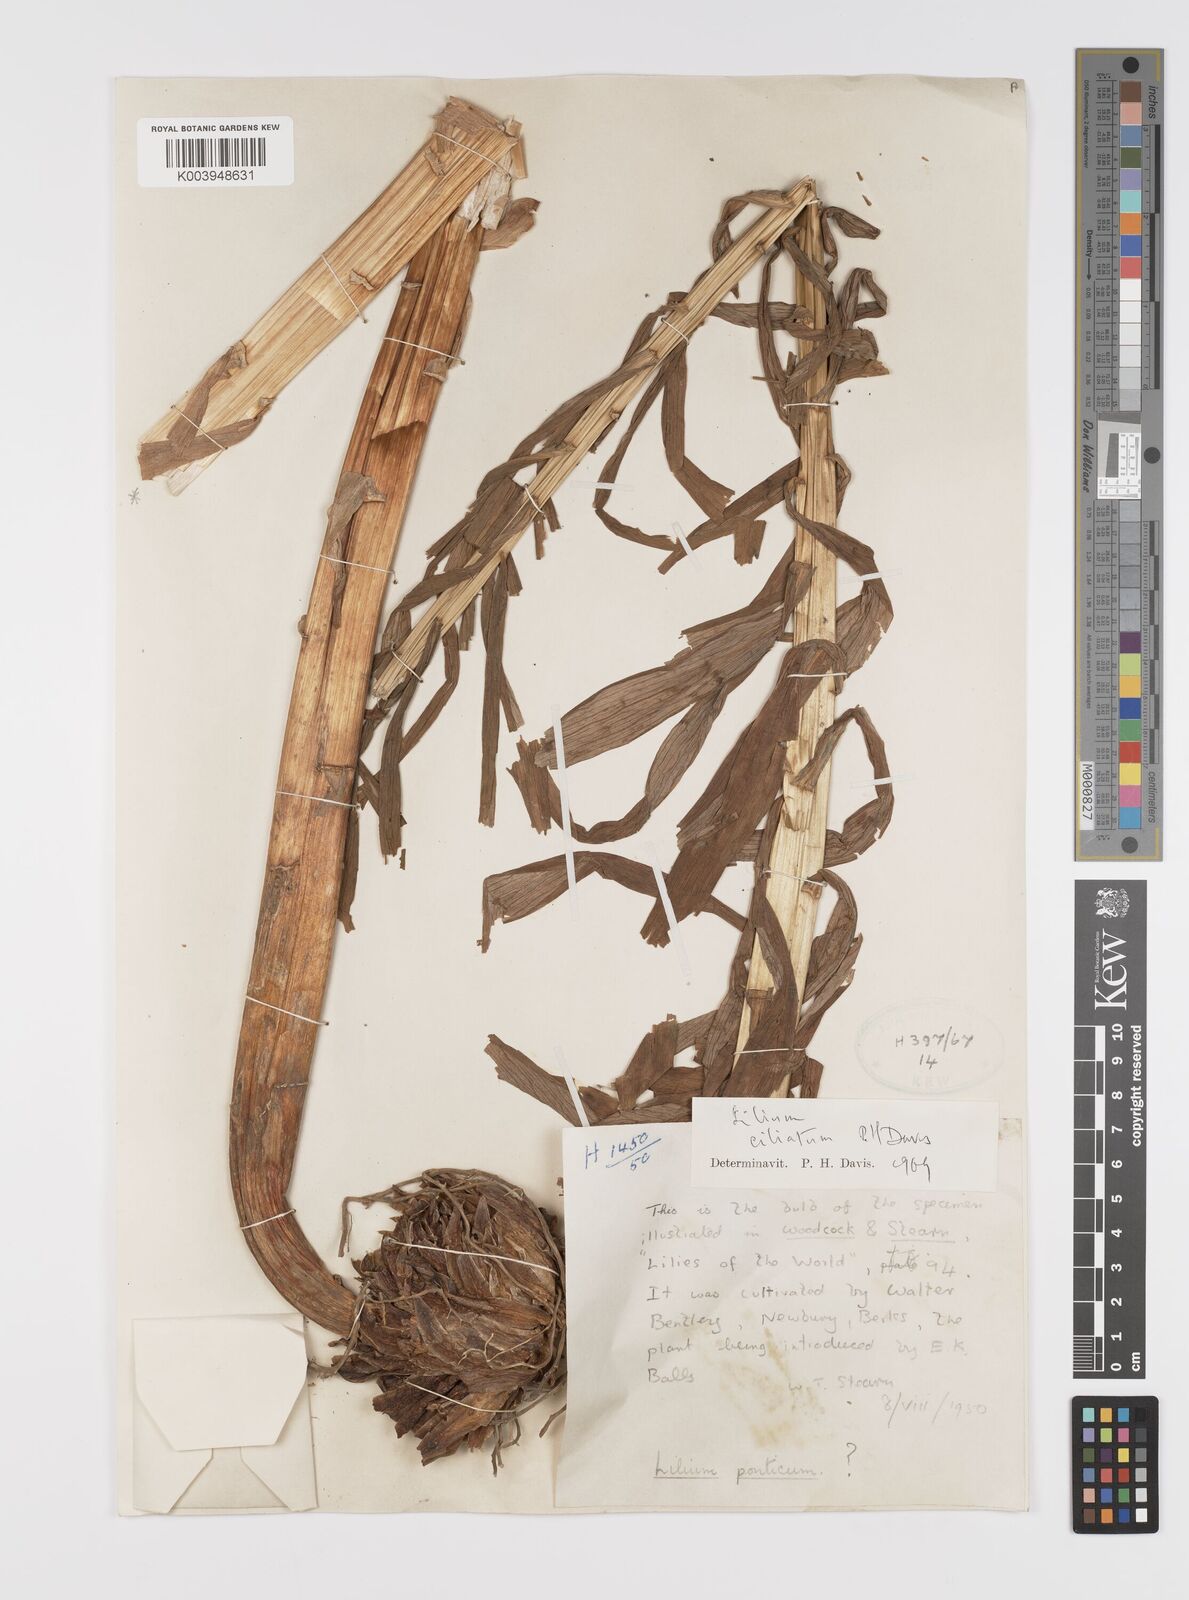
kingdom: Plantae
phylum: Tracheophyta
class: Liliopsida
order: Liliales
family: Liliaceae
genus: Lilium
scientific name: Lilium ciliatum
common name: Ciliate lily
